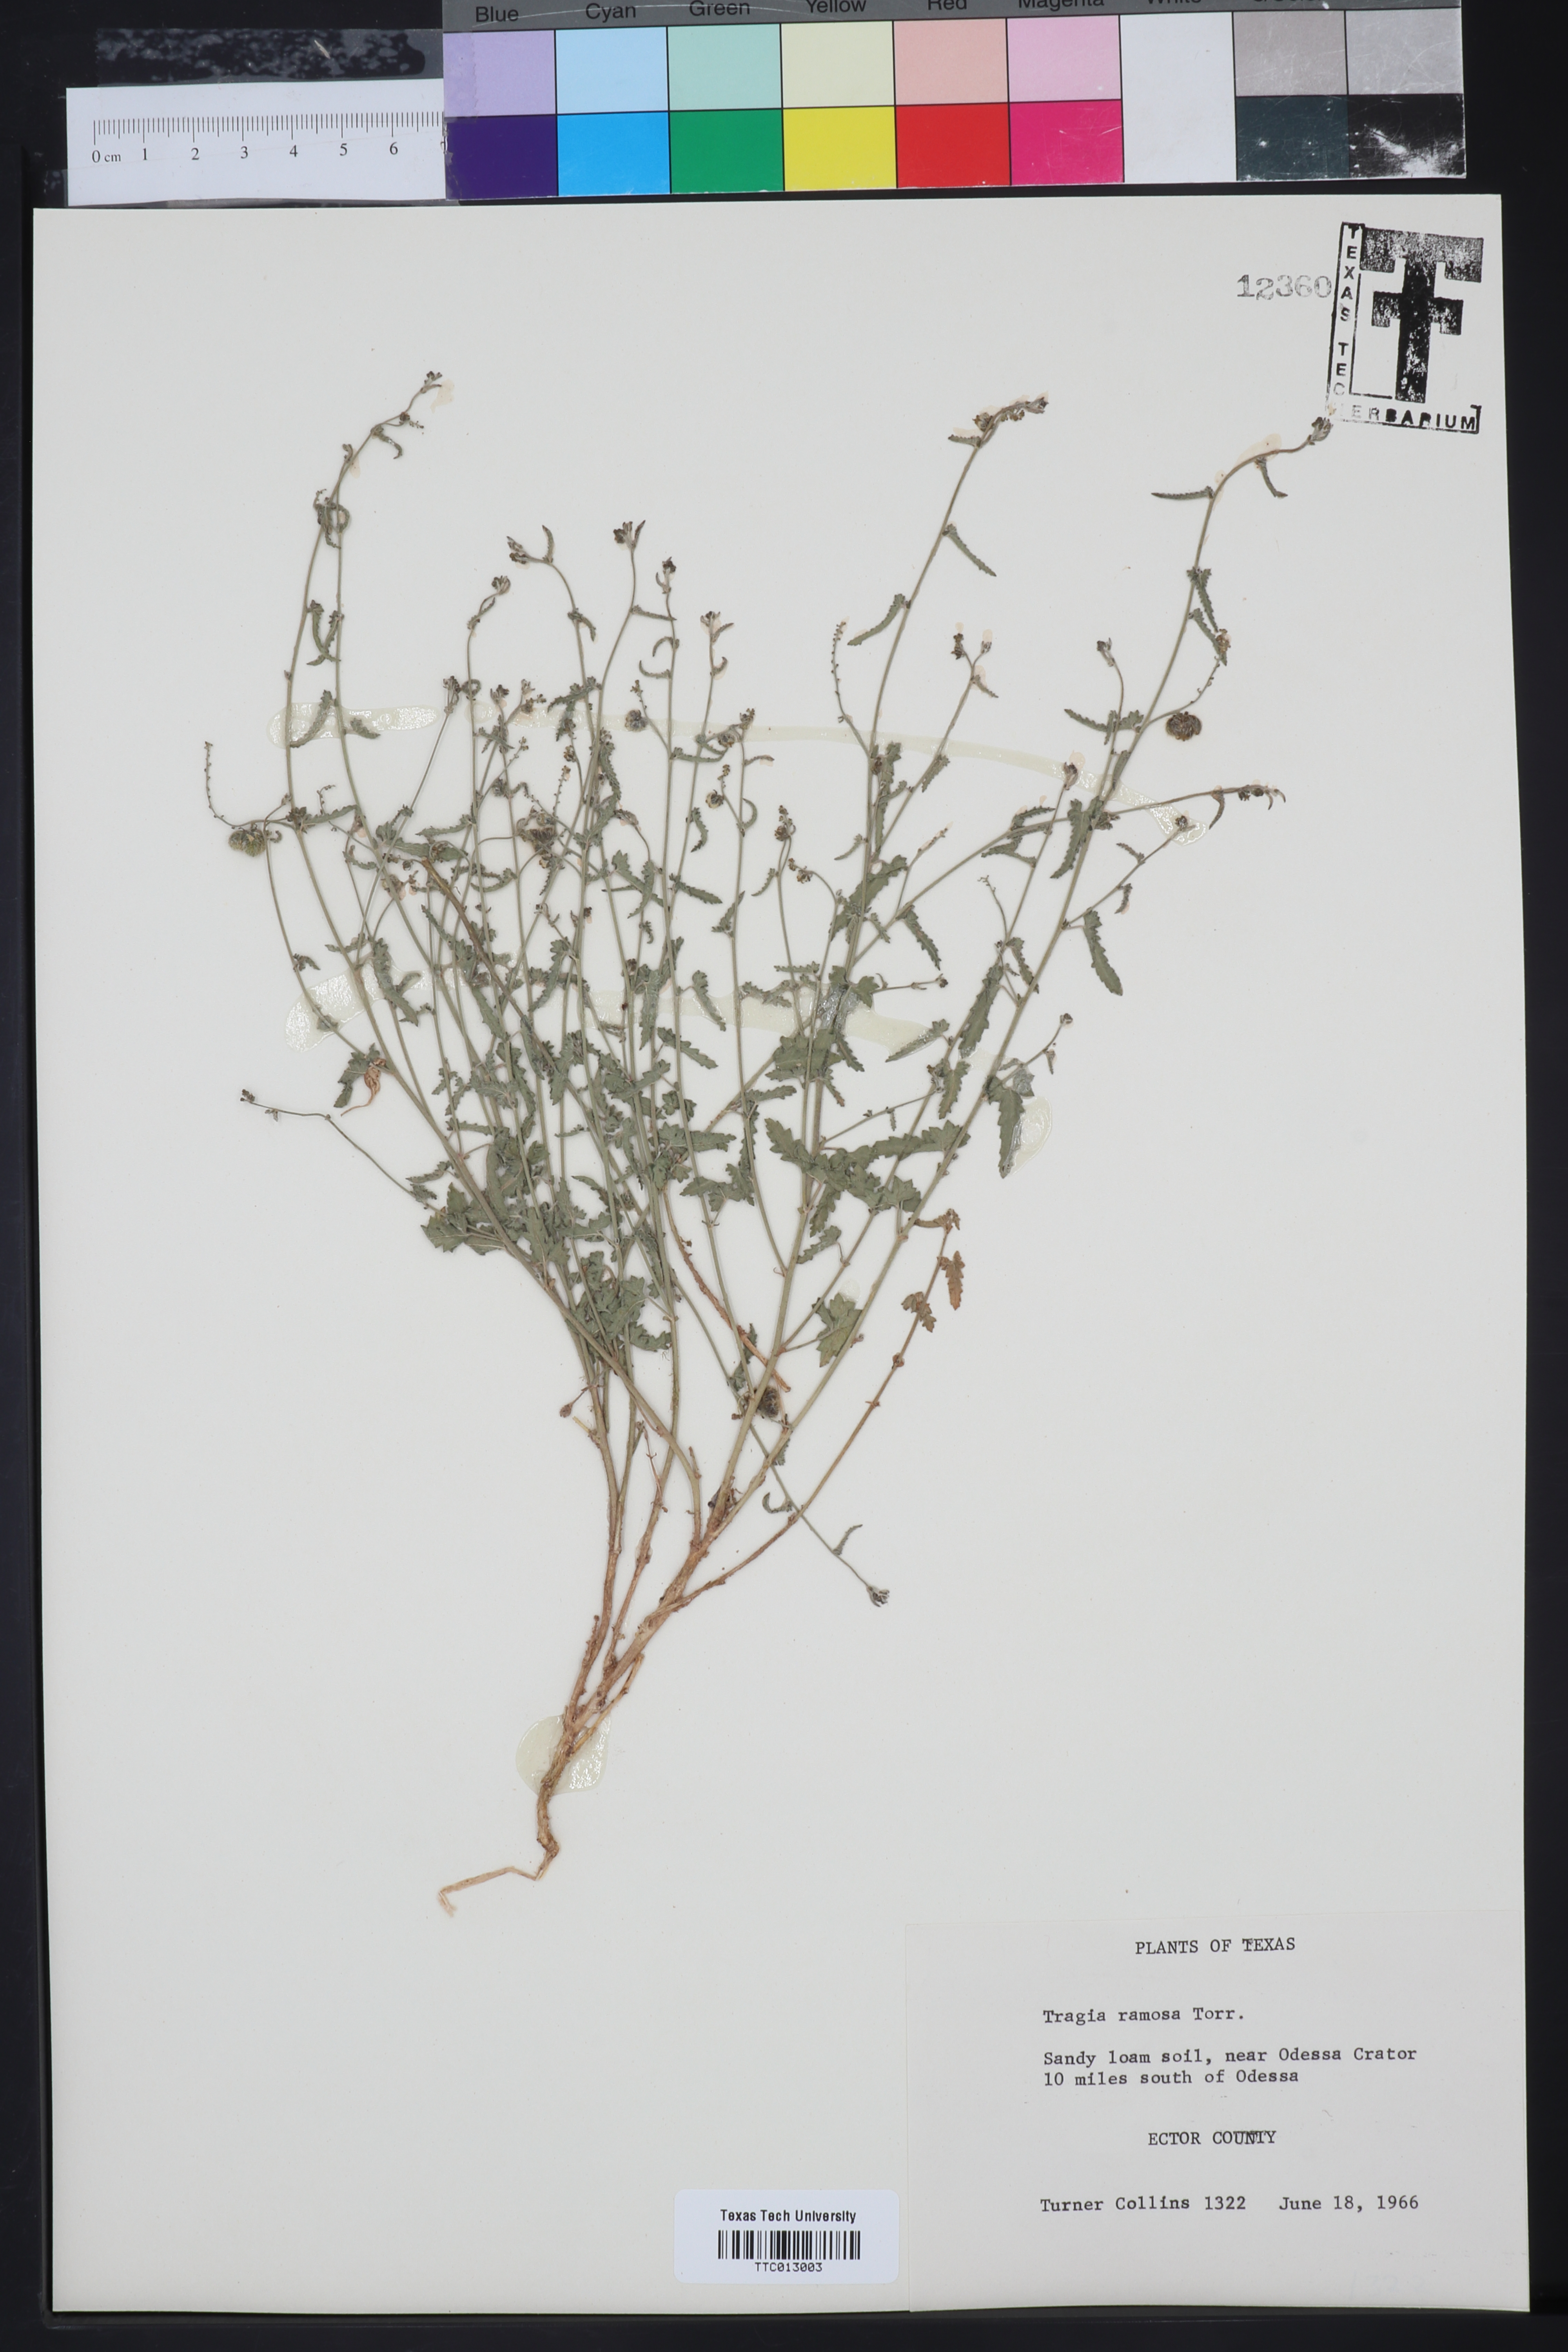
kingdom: Plantae
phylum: Tracheophyta
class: Magnoliopsida
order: Malpighiales
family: Euphorbiaceae
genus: Tragia
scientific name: Tragia ramosa
